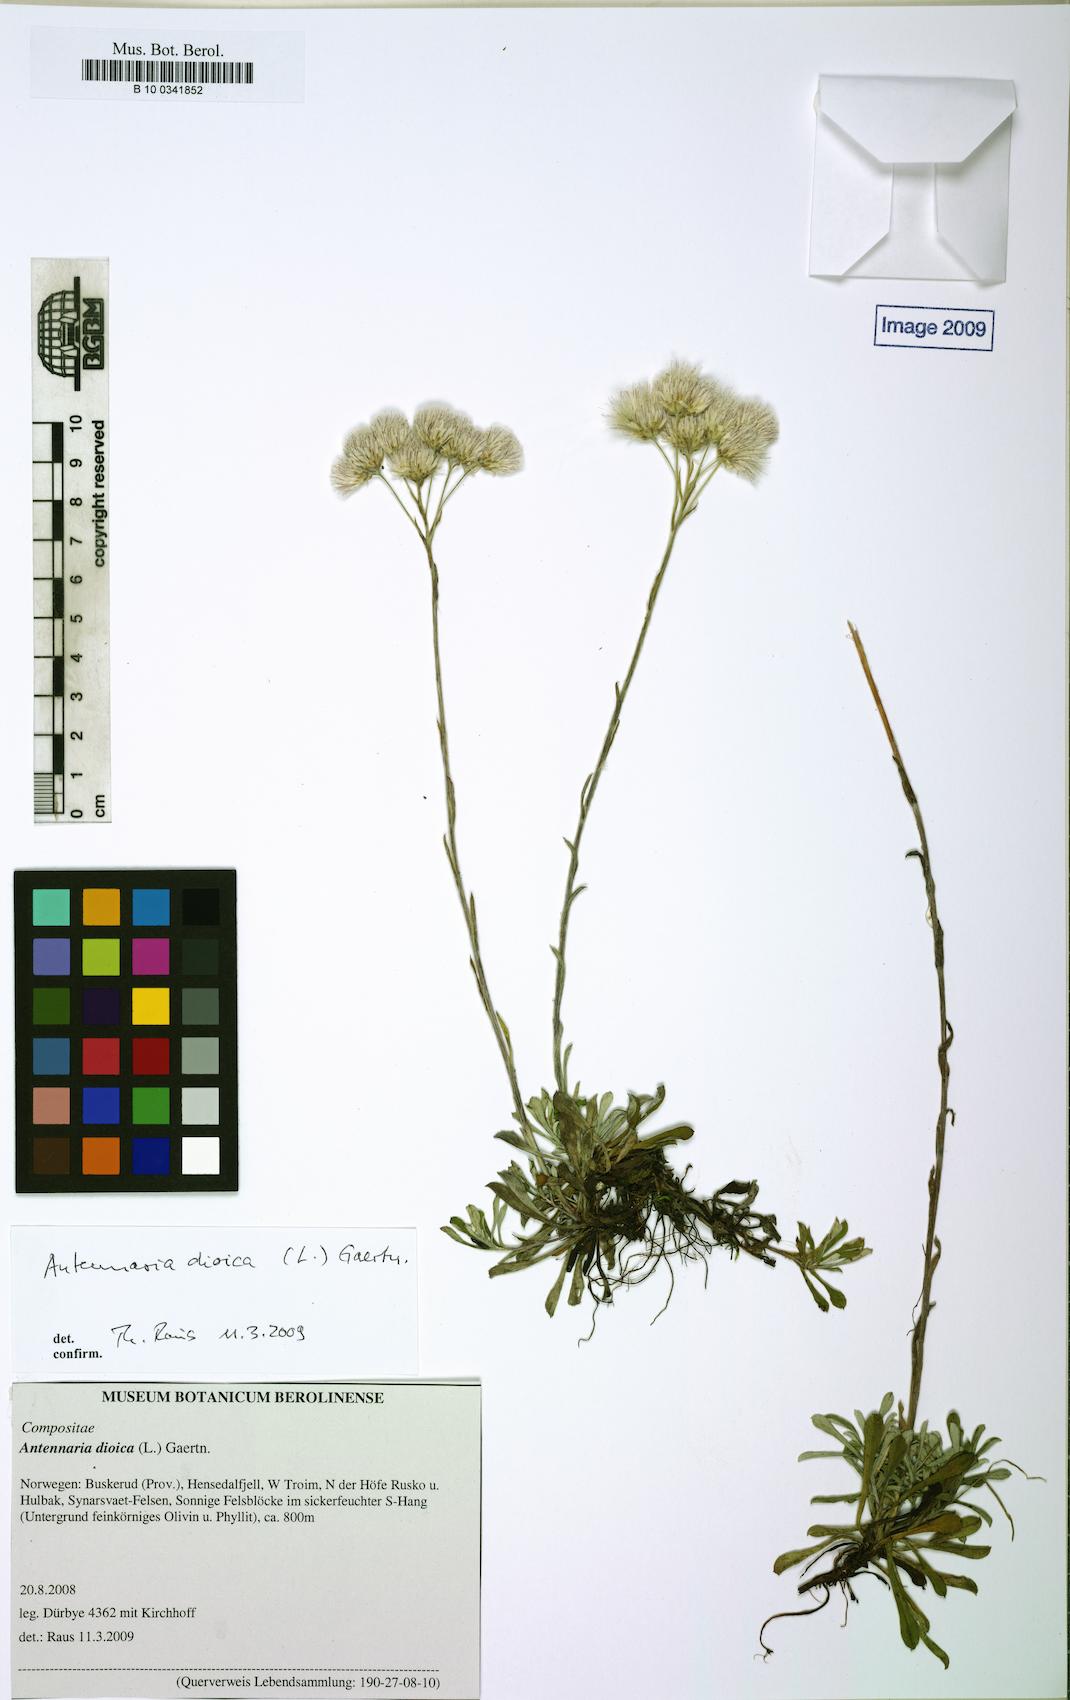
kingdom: Plantae
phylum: Tracheophyta
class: Magnoliopsida
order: Asterales
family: Asteraceae
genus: Antennaria
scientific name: Antennaria dioica
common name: Mountain everlasting
